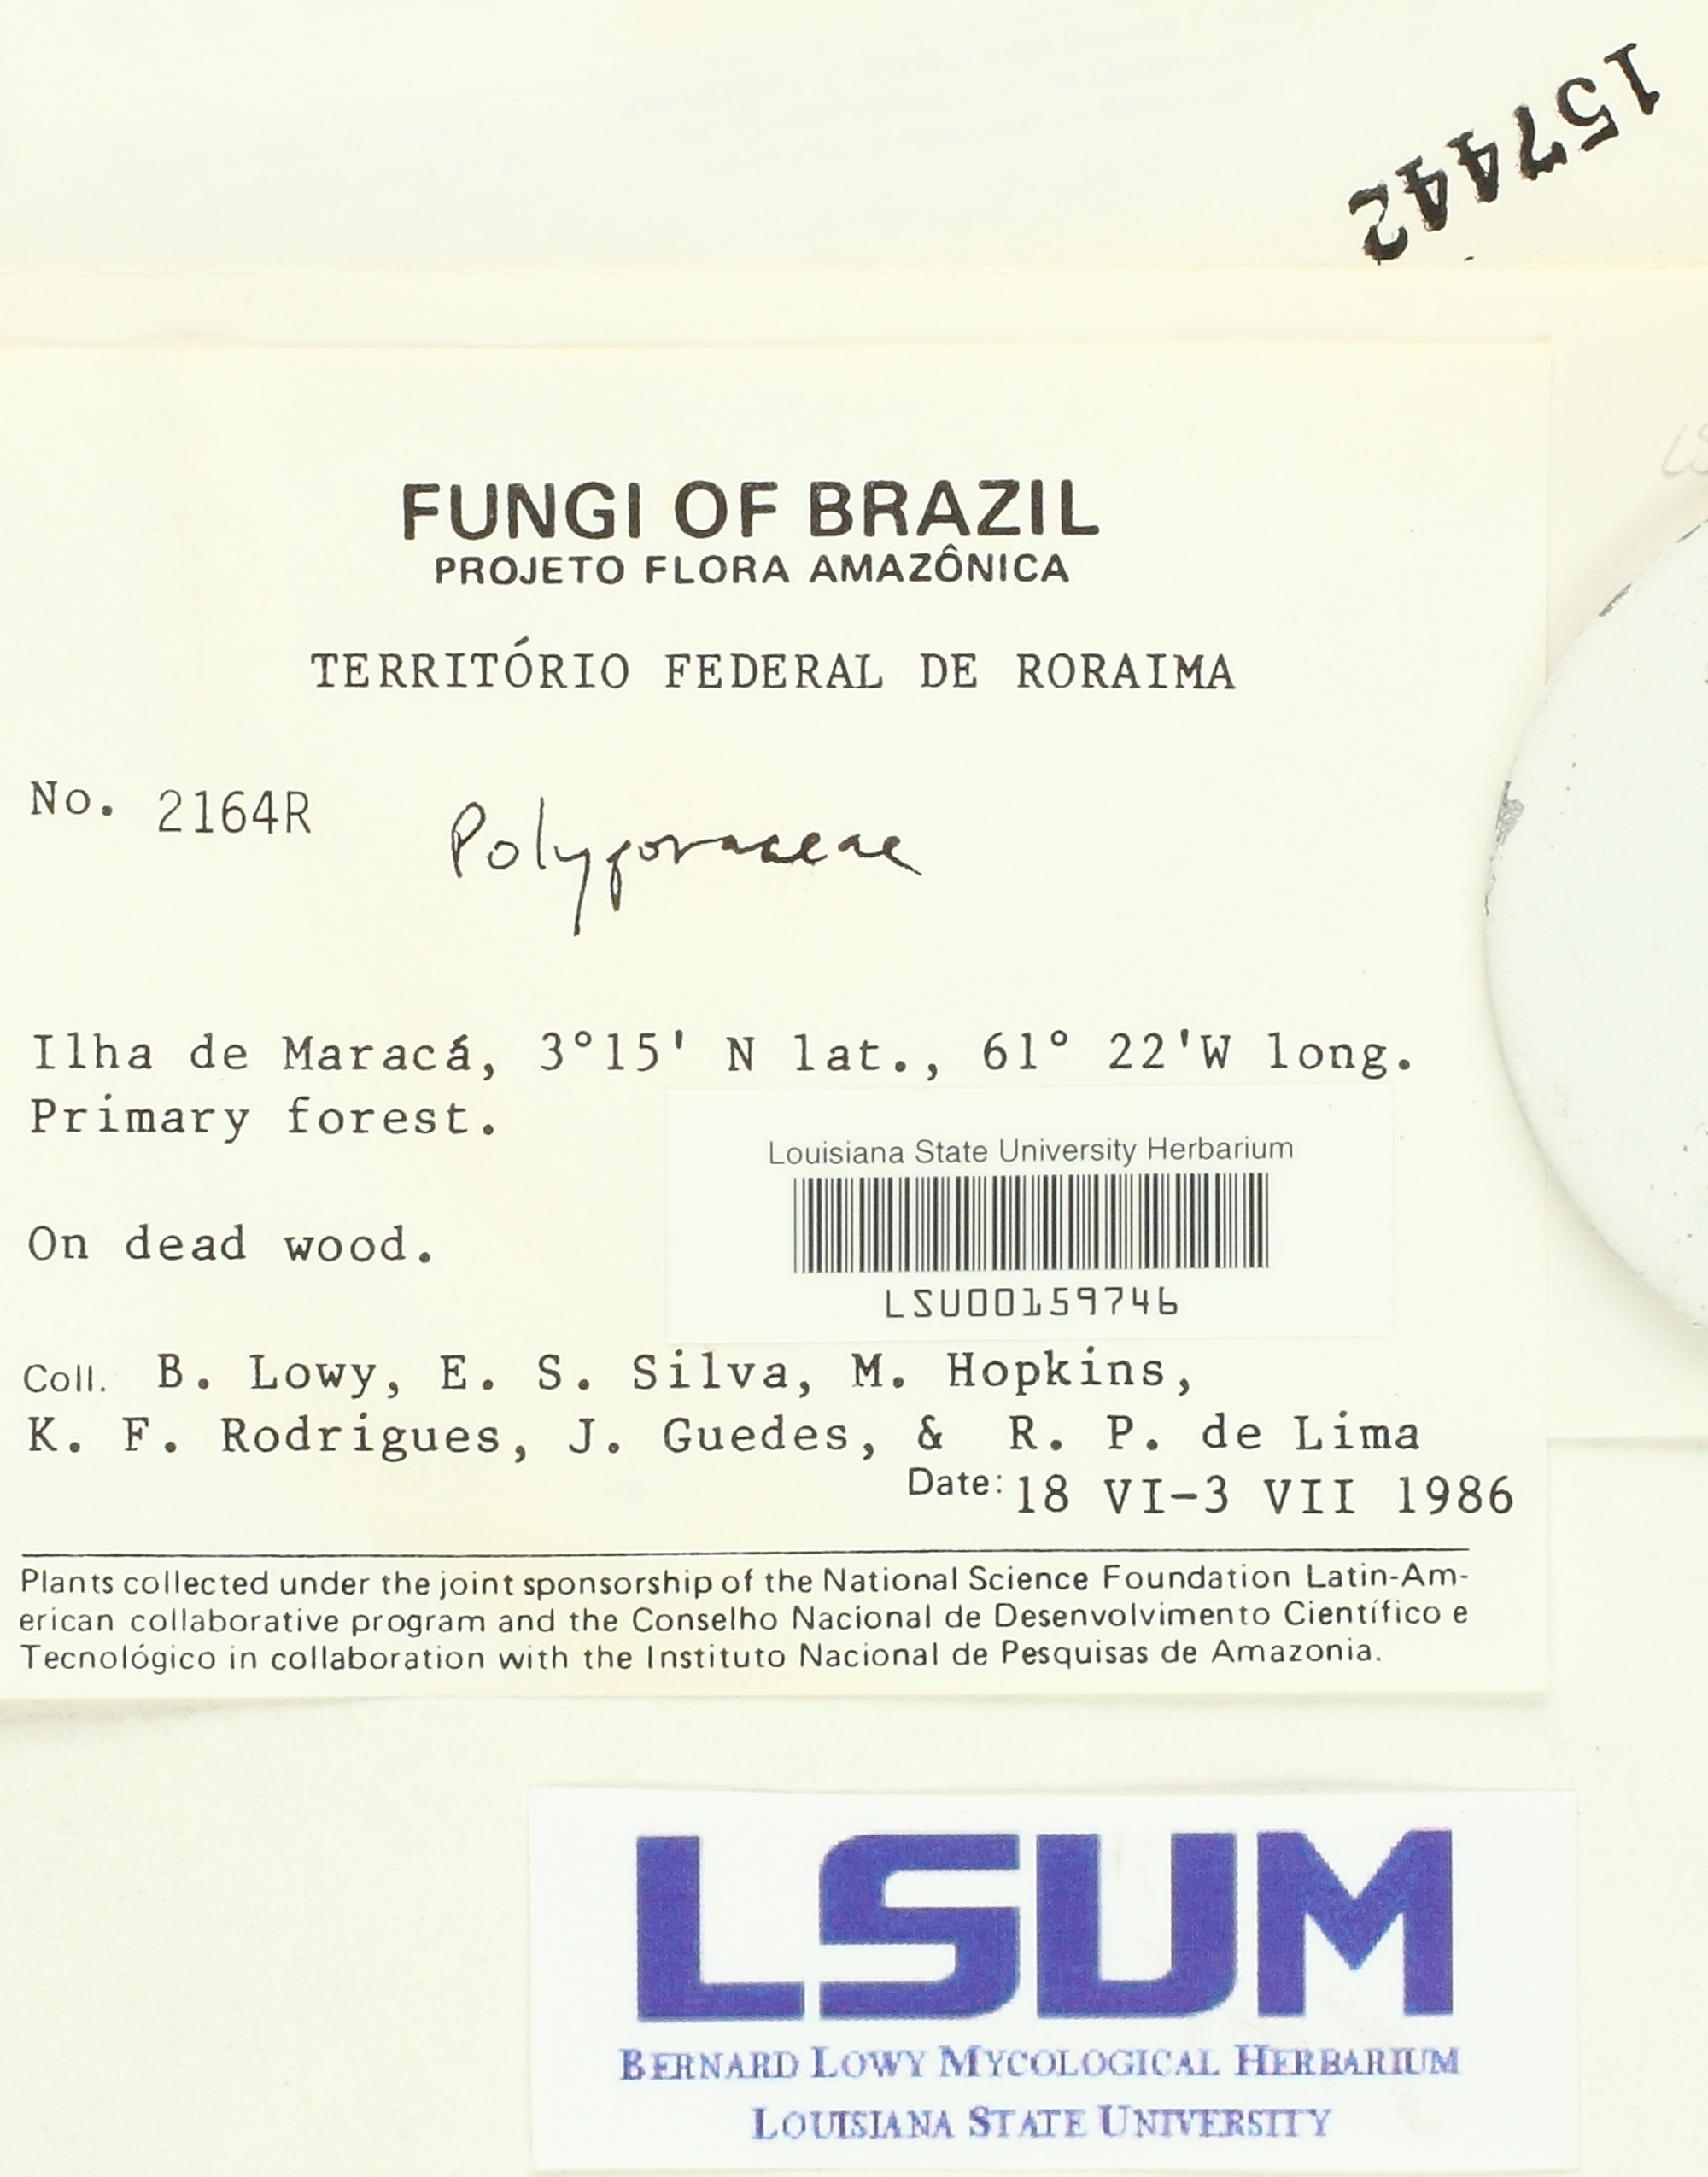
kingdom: Fungi
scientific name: Fungi
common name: Fungi
